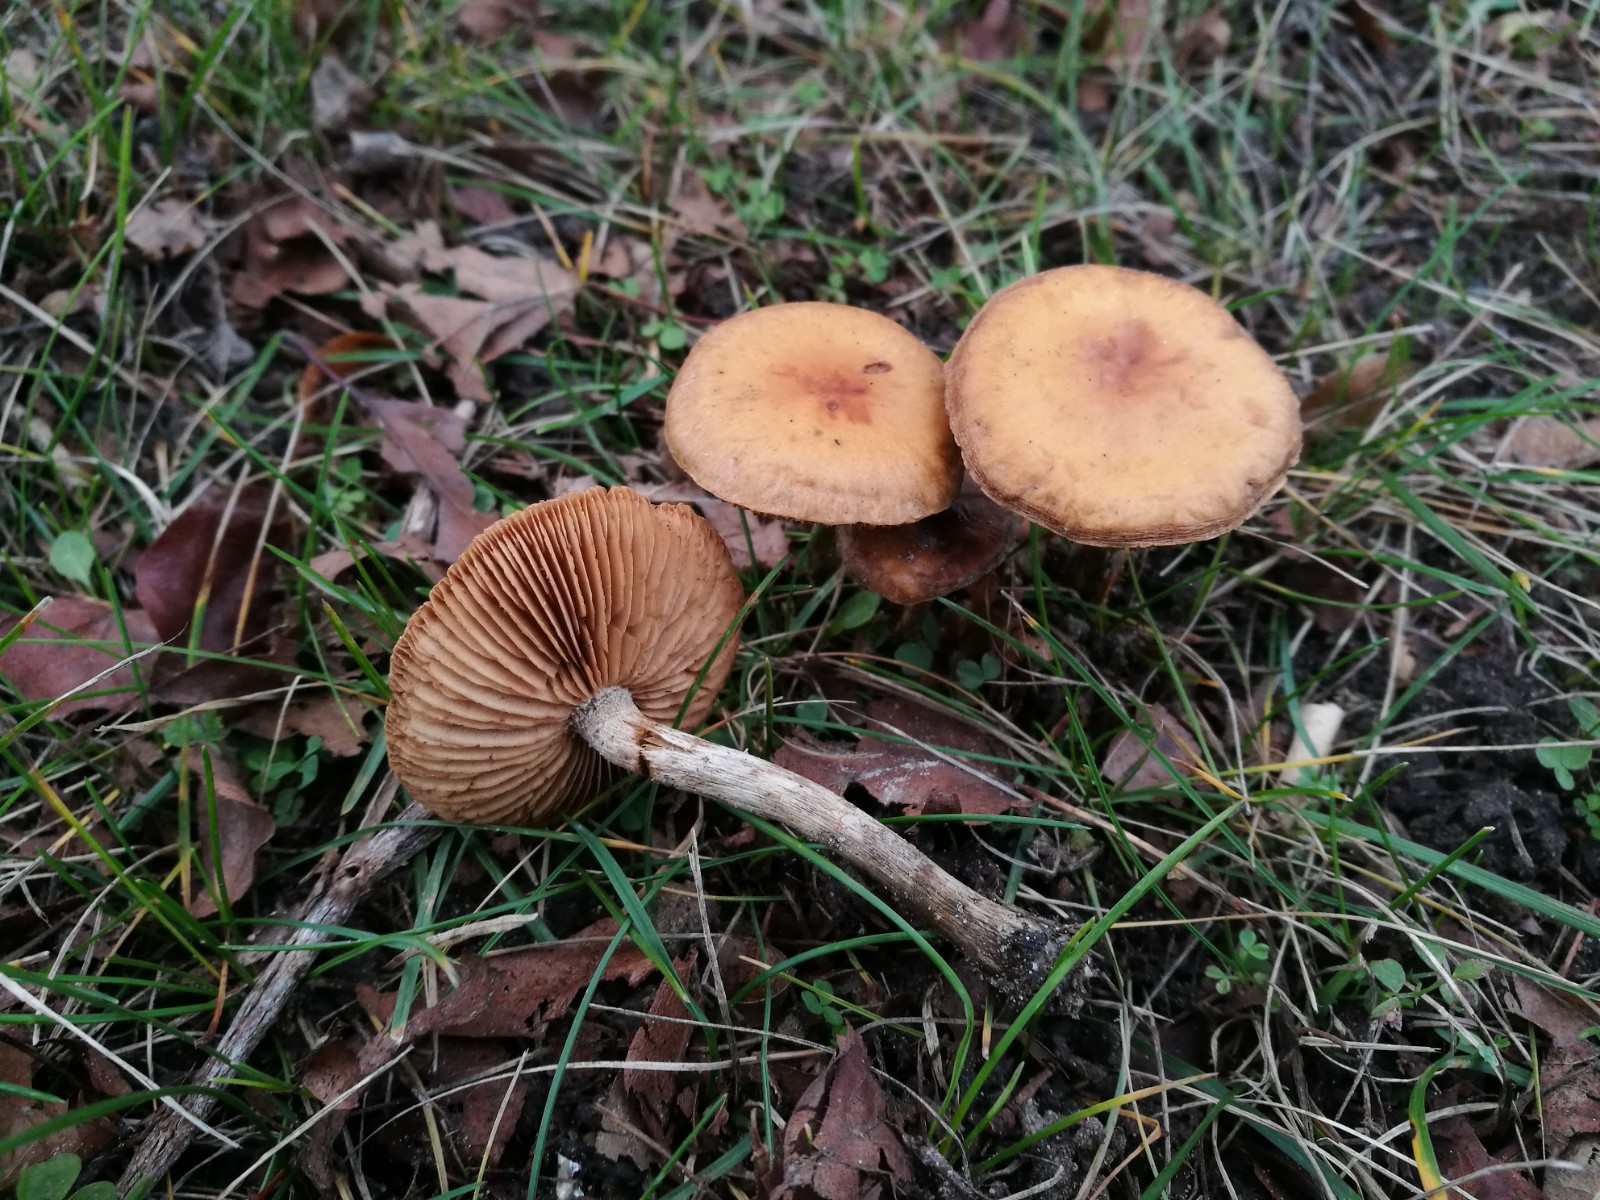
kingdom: Fungi
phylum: Basidiomycota
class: Agaricomycetes
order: Agaricales
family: Hymenogastraceae
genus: Galerina
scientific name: Galerina
